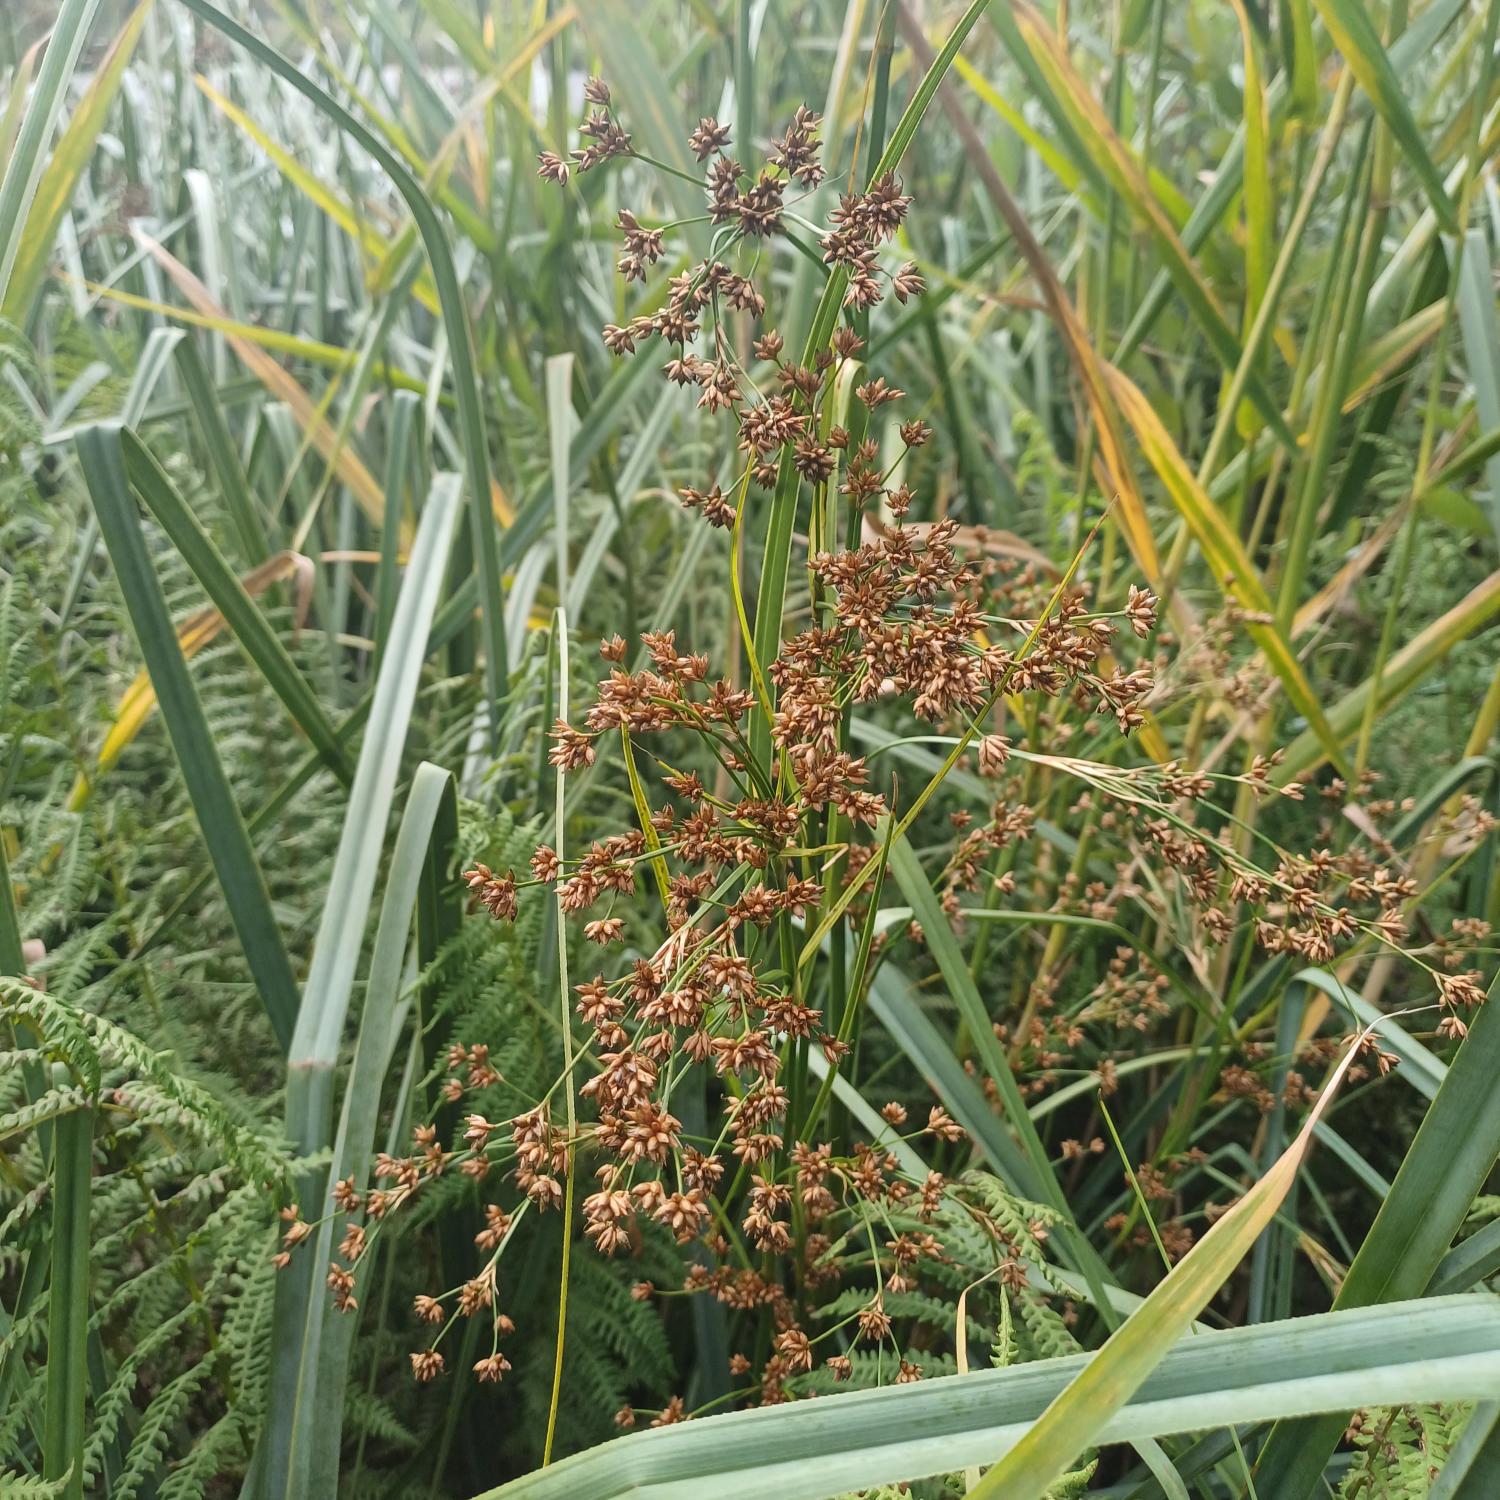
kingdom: Plantae
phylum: Tracheophyta
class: Liliopsida
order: Poales
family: Cyperaceae
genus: Cladium
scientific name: Cladium mariscus
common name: Hvas avneknippe
